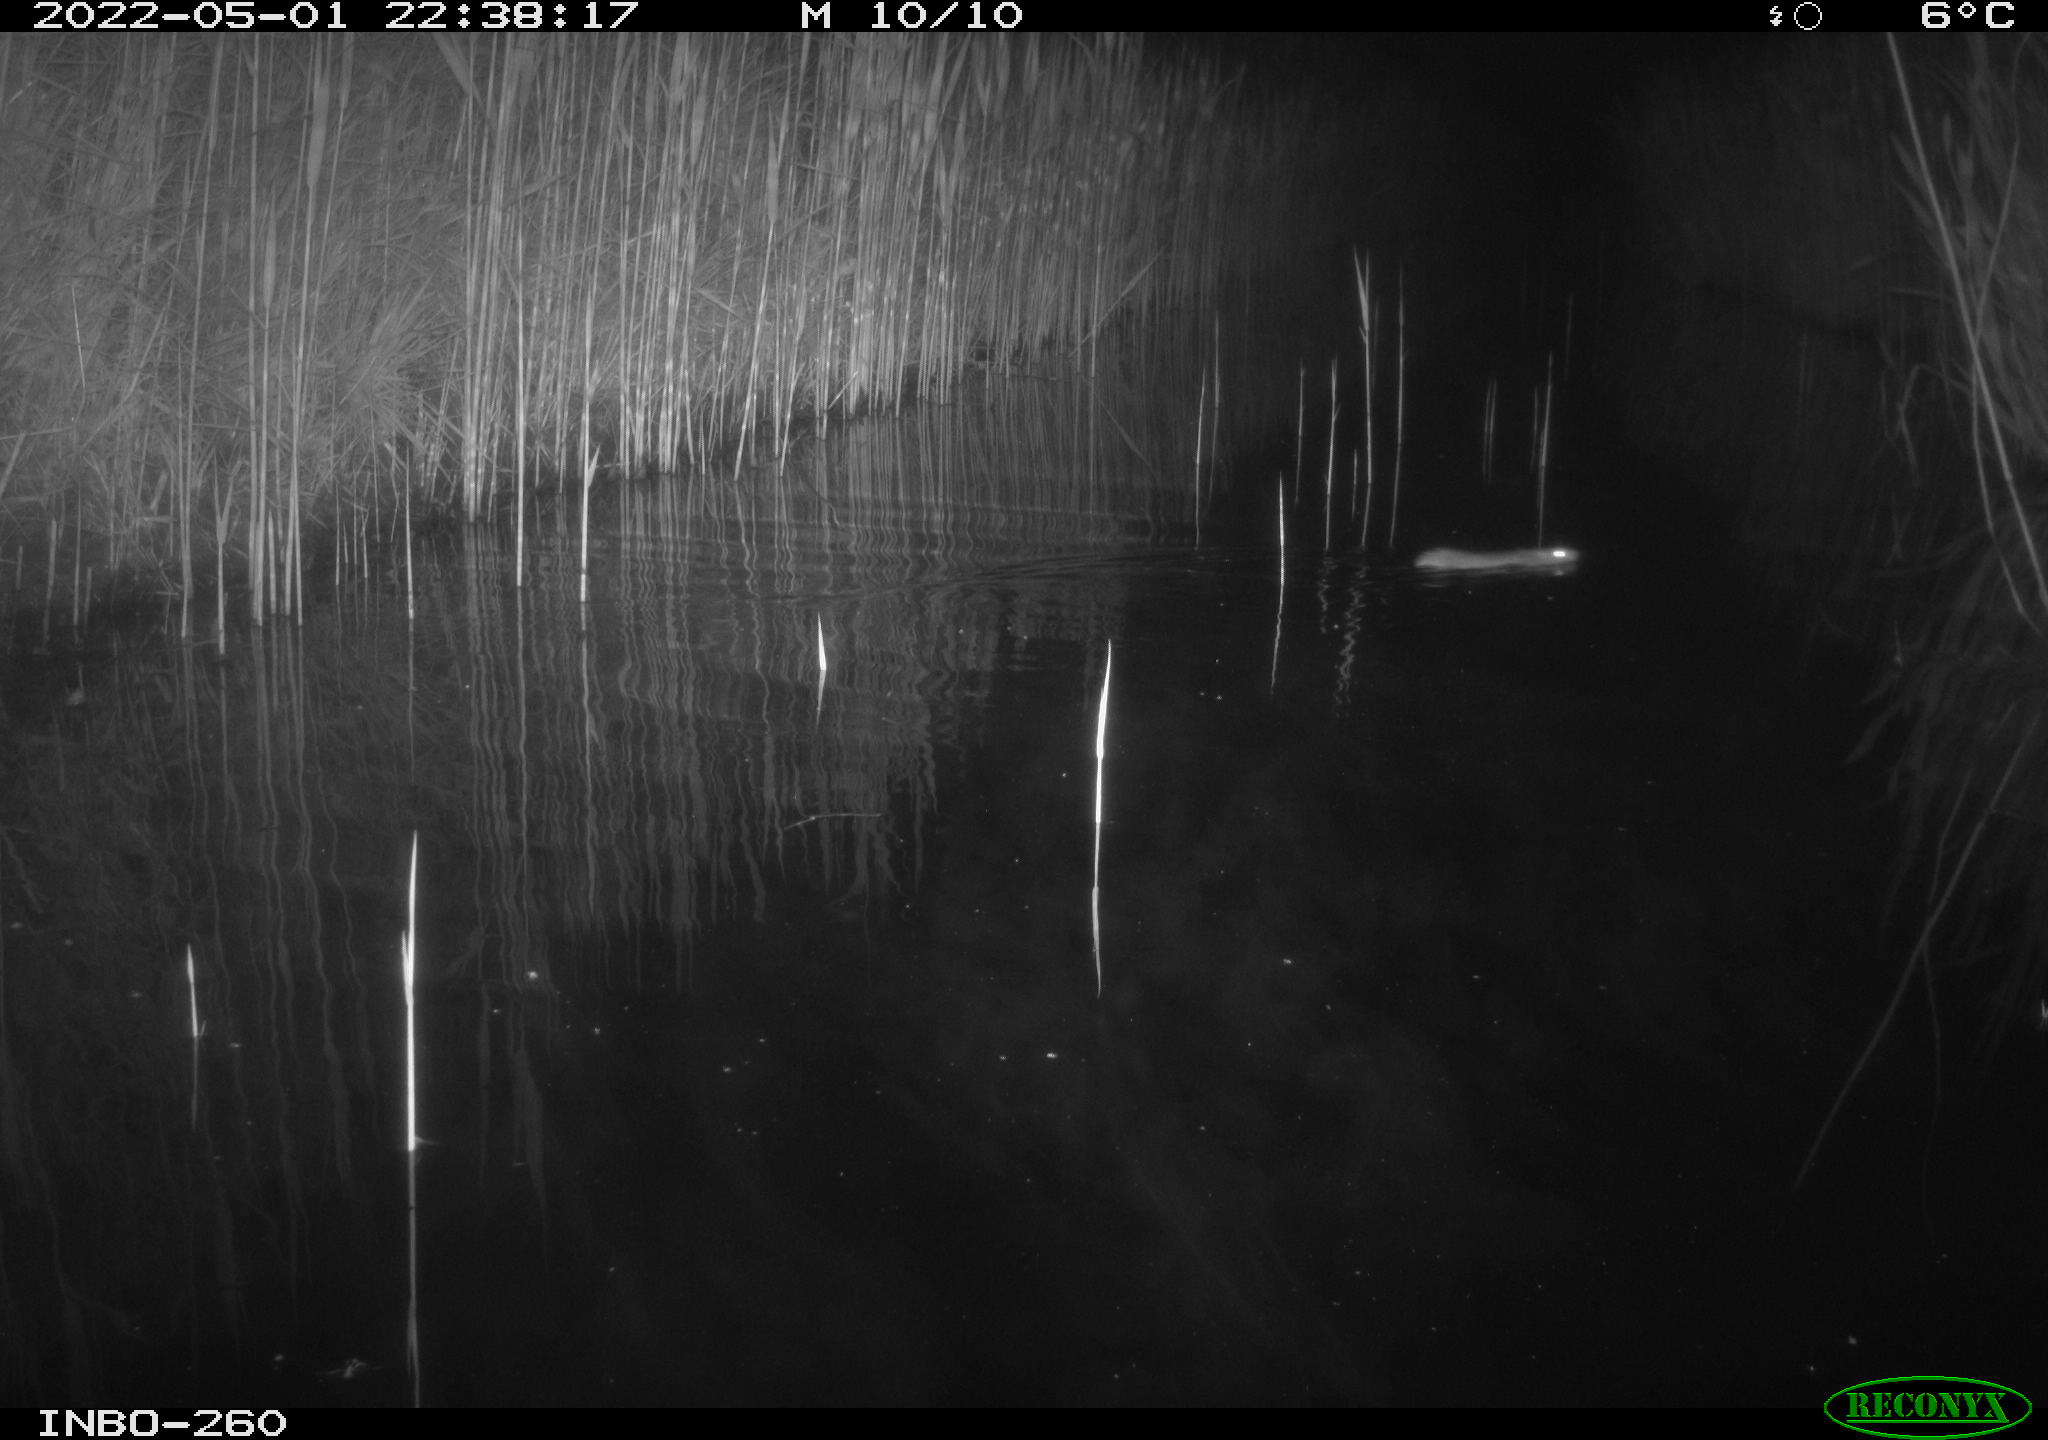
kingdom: Animalia
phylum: Chordata
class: Mammalia
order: Rodentia
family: Muridae
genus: Rattus
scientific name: Rattus norvegicus
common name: Brown rat
